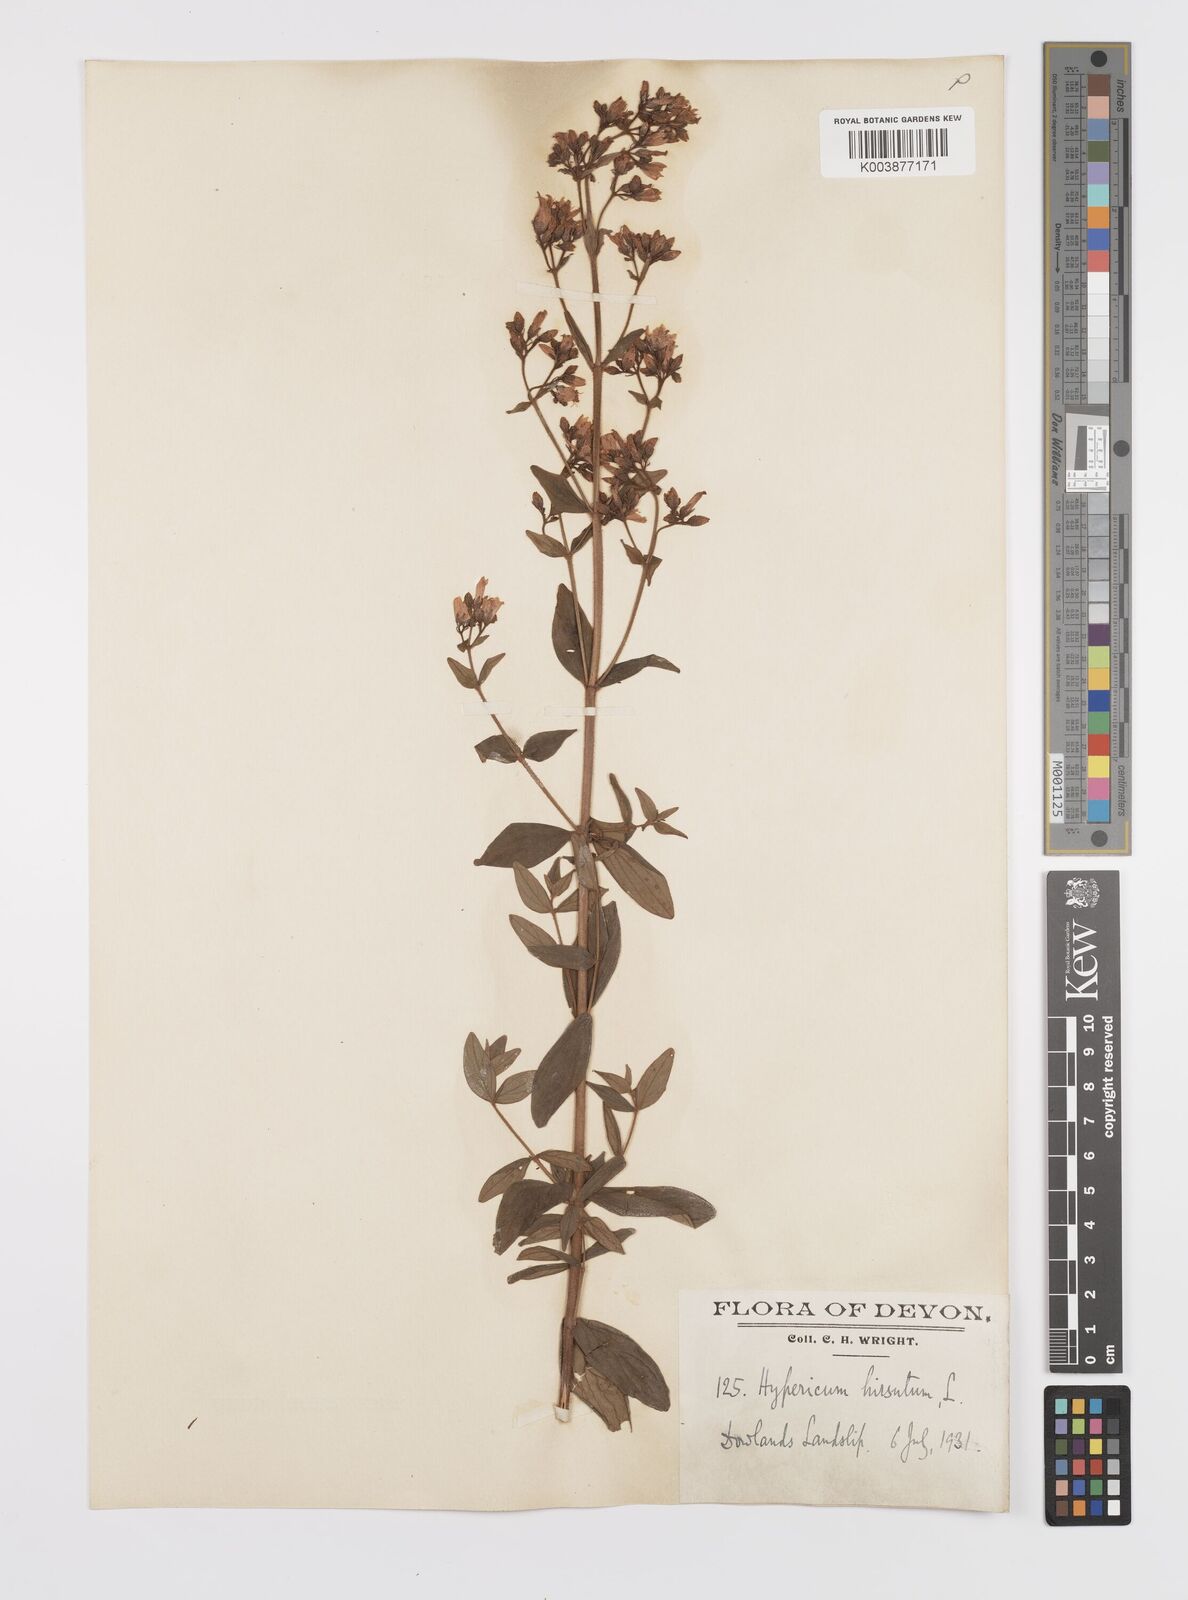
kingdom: Plantae
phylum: Tracheophyta
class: Magnoliopsida
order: Malpighiales
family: Hypericaceae
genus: Hypericum
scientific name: Hypericum hirsutum
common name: Hairy st. john's-wort
